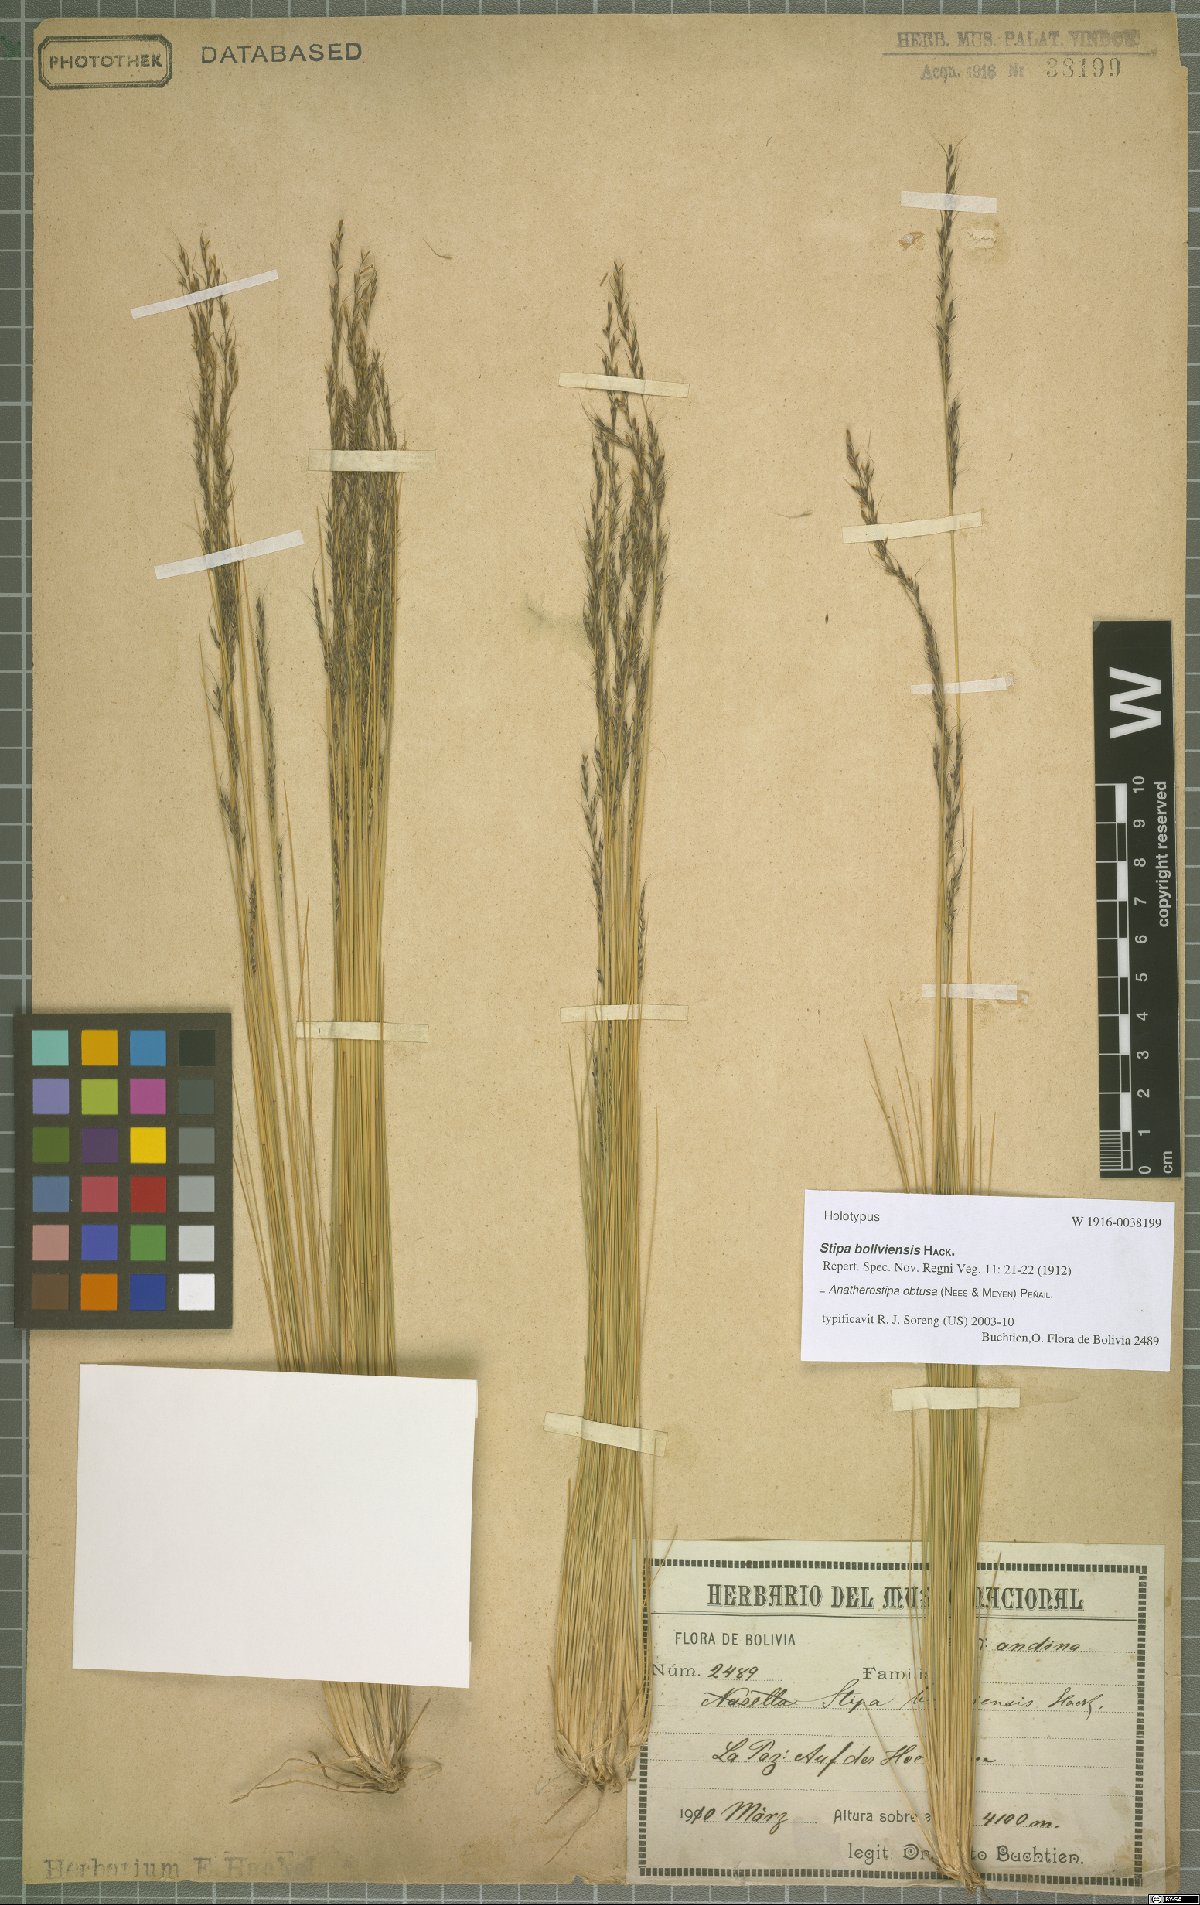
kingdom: Plantae
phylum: Tracheophyta
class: Liliopsida
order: Poales
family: Poaceae
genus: Stipa
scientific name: Stipa obtusa
